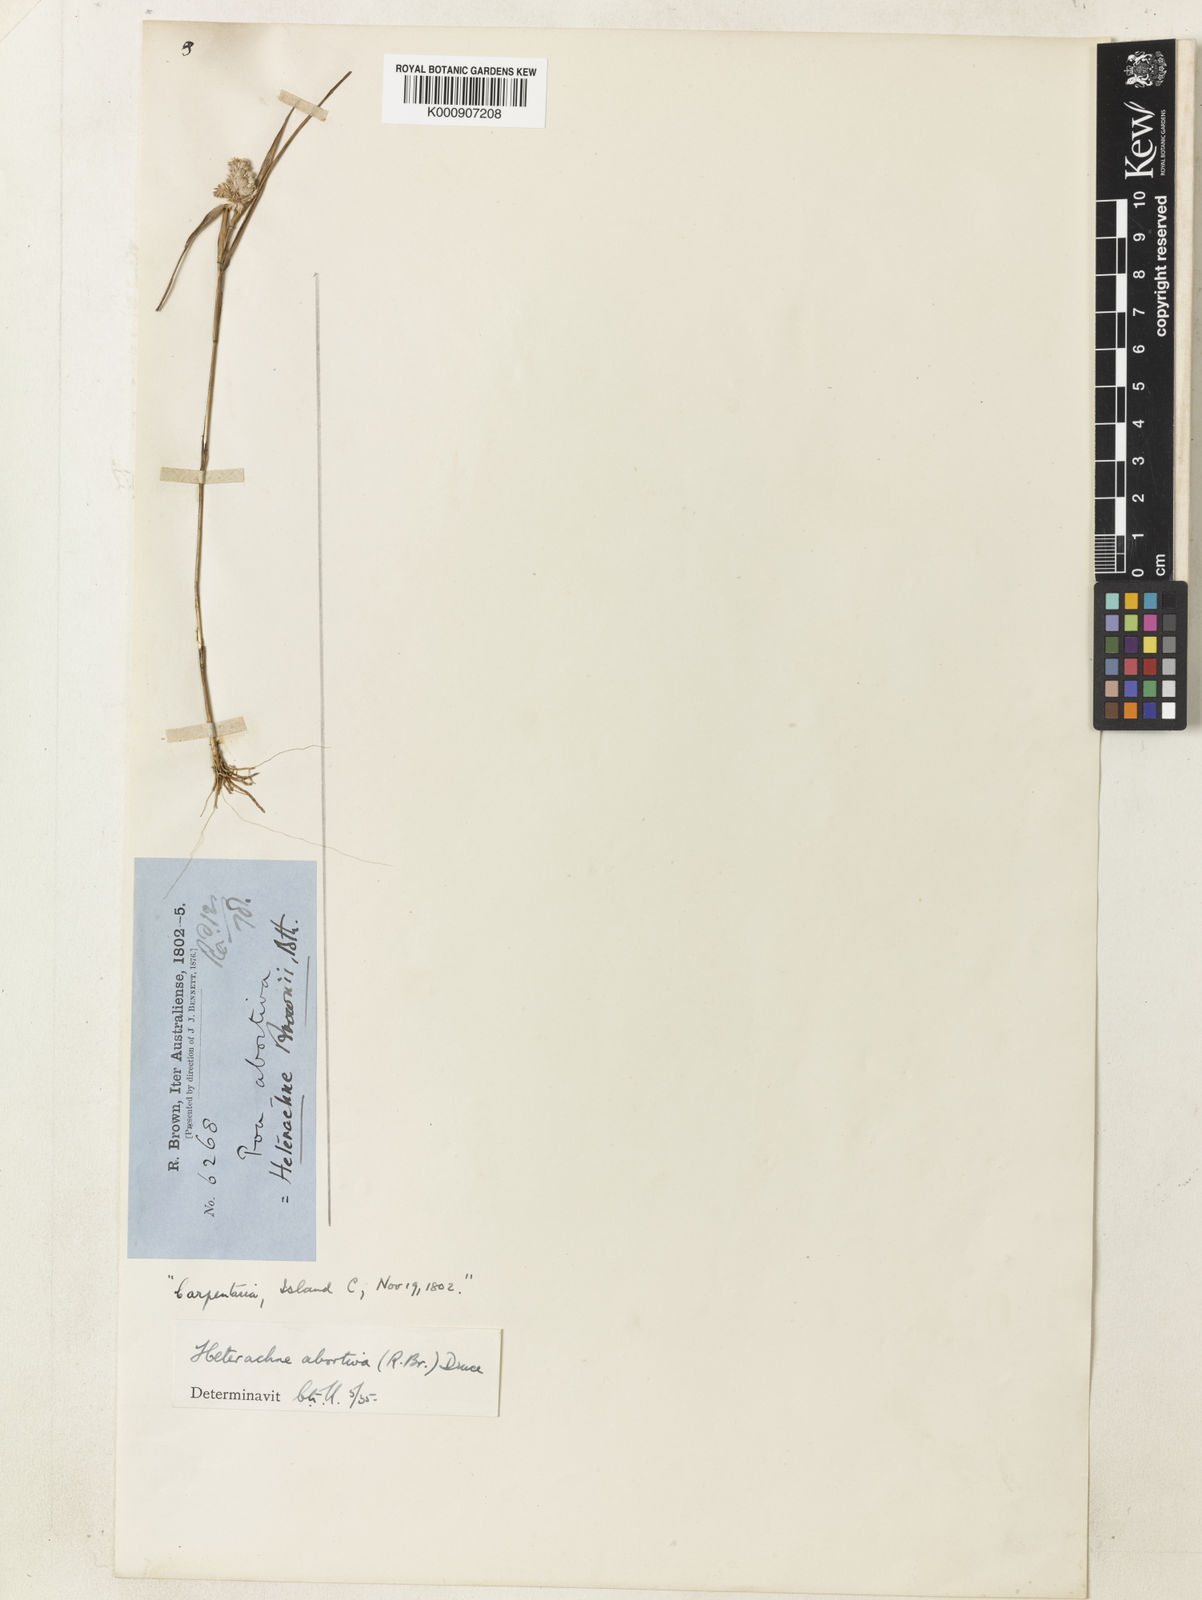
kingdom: Plantae
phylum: Tracheophyta
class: Liliopsida
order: Poales
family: Poaceae
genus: Eragrostis
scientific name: Eragrostis abortiva
